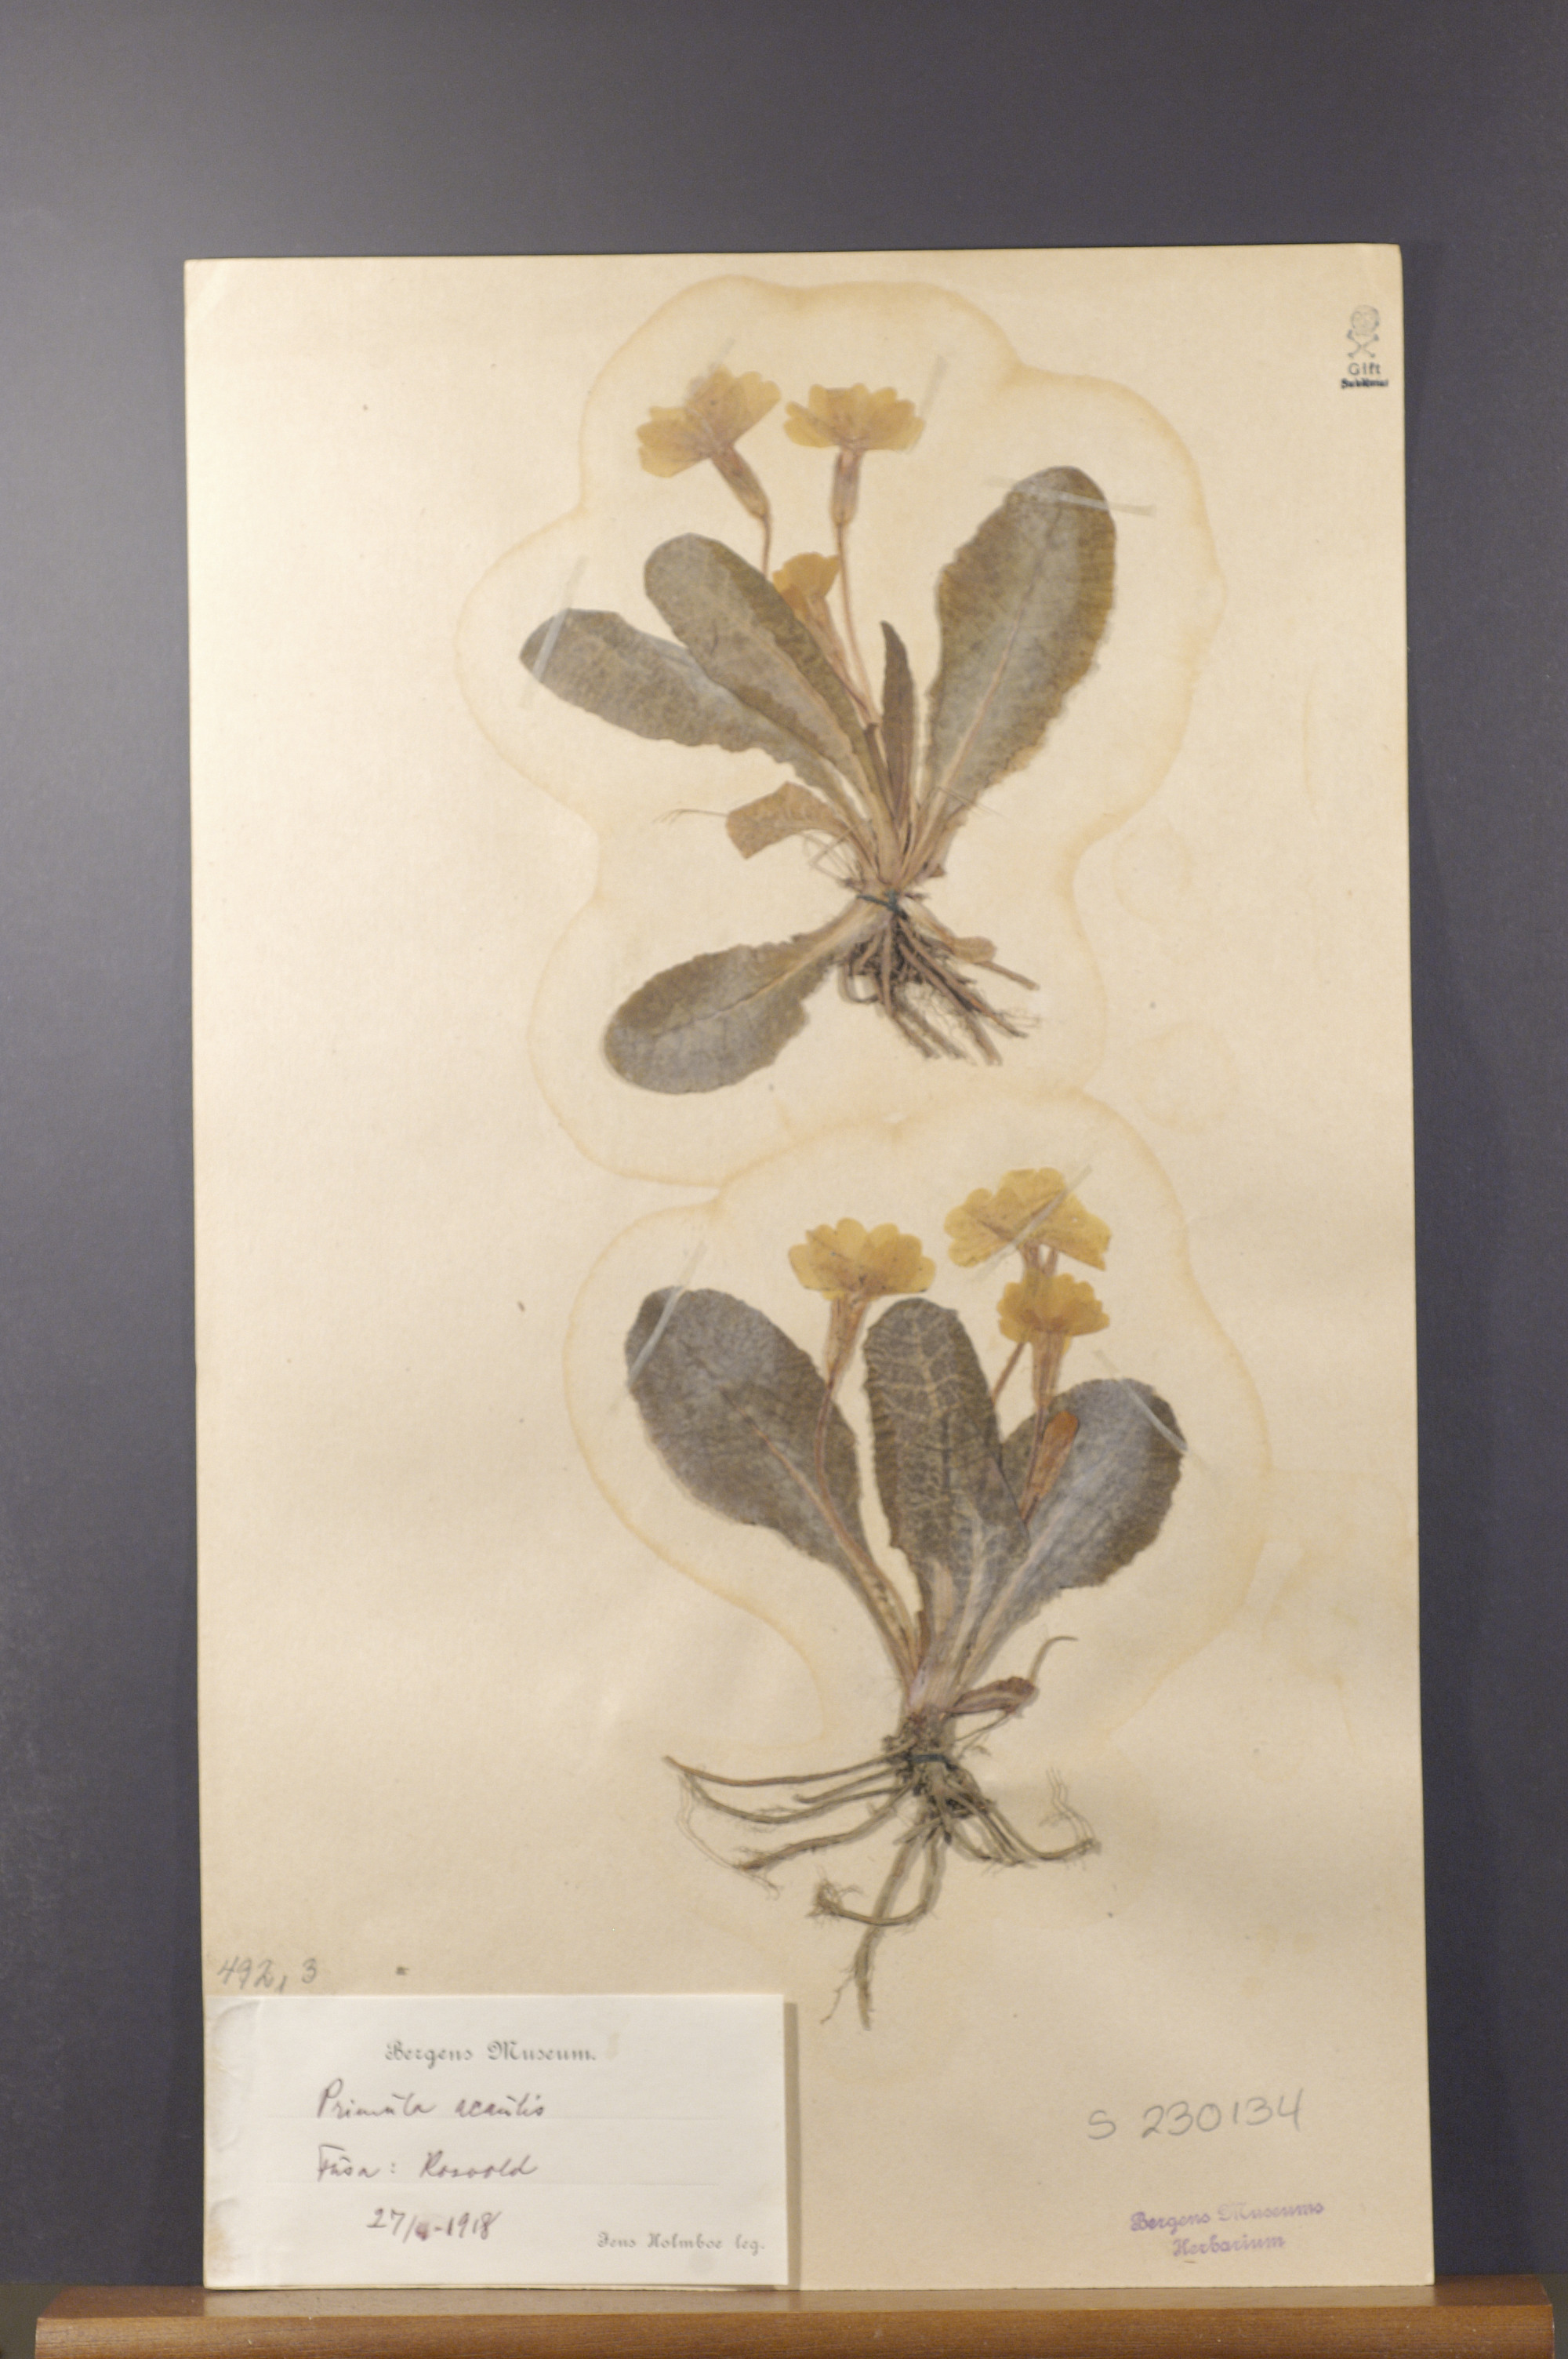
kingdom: Plantae
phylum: Tracheophyta
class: Magnoliopsida
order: Ericales
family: Primulaceae
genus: Primula
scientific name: Primula vulgaris
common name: Primrose
